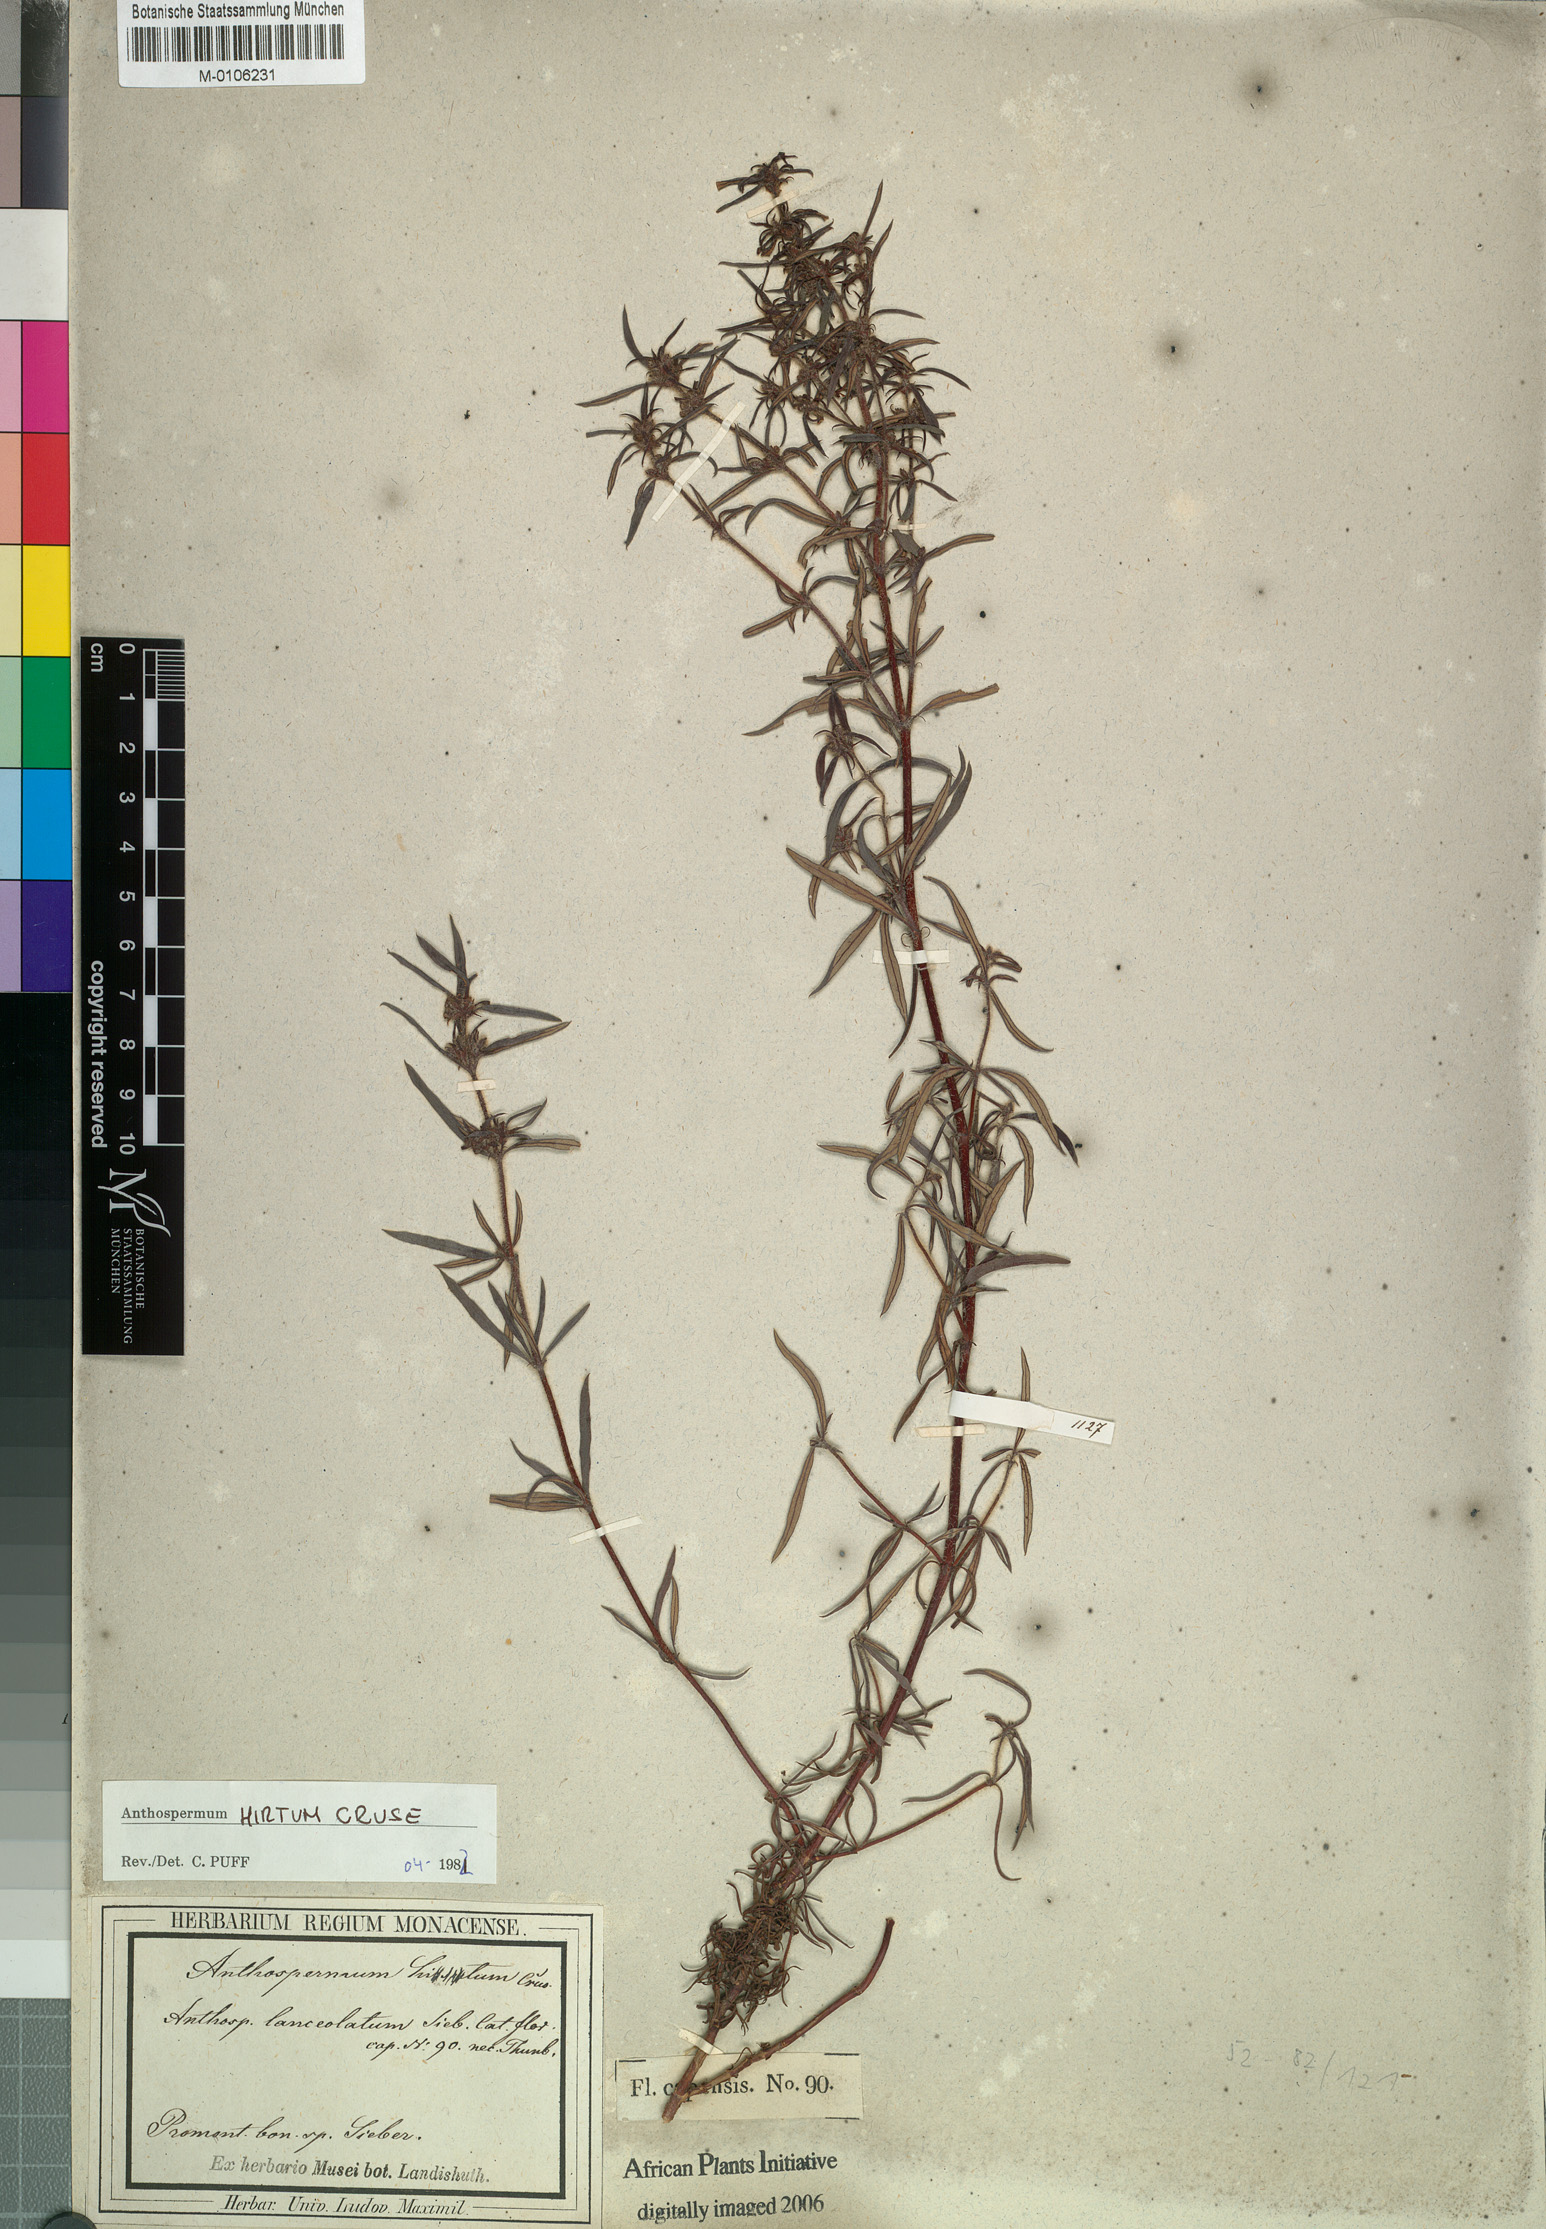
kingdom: Plantae
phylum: Tracheophyta
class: Magnoliopsida
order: Gentianales
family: Rubiaceae
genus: Anthospermum
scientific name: Anthospermum hirtum
